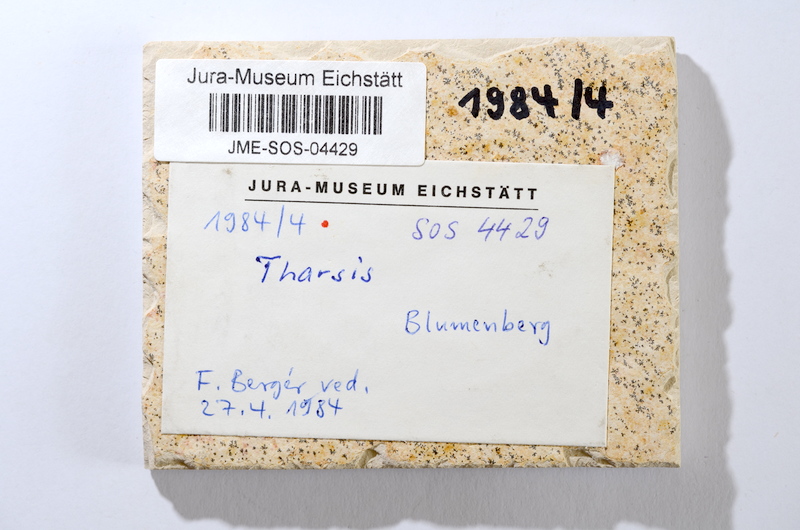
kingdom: Animalia
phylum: Chordata
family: Ascalaboidae
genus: Tharsis
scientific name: Tharsis dubius
